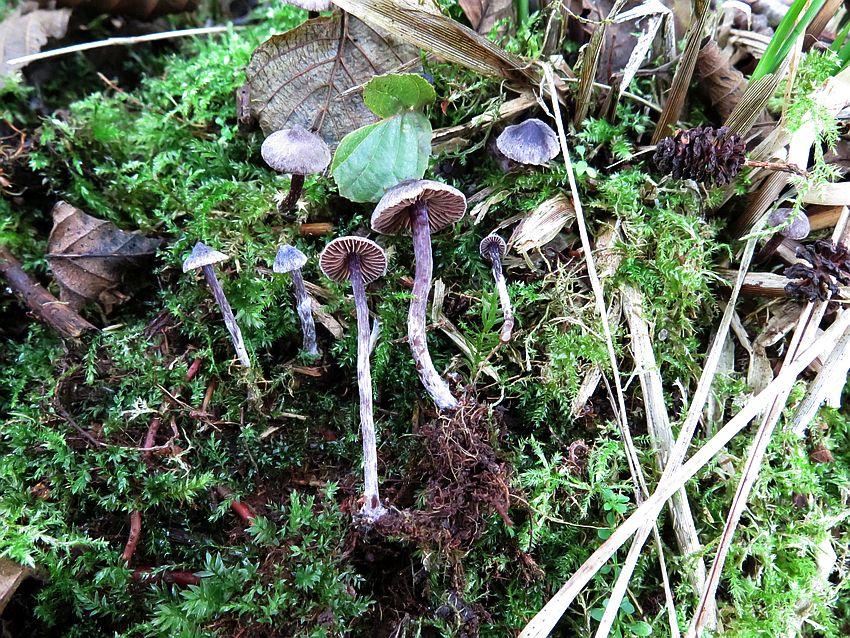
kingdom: Fungi
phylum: Basidiomycota
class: Agaricomycetes
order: Agaricales
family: Cortinariaceae
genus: Cortinarius
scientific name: Cortinarius americanus
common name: natsort slørhat
